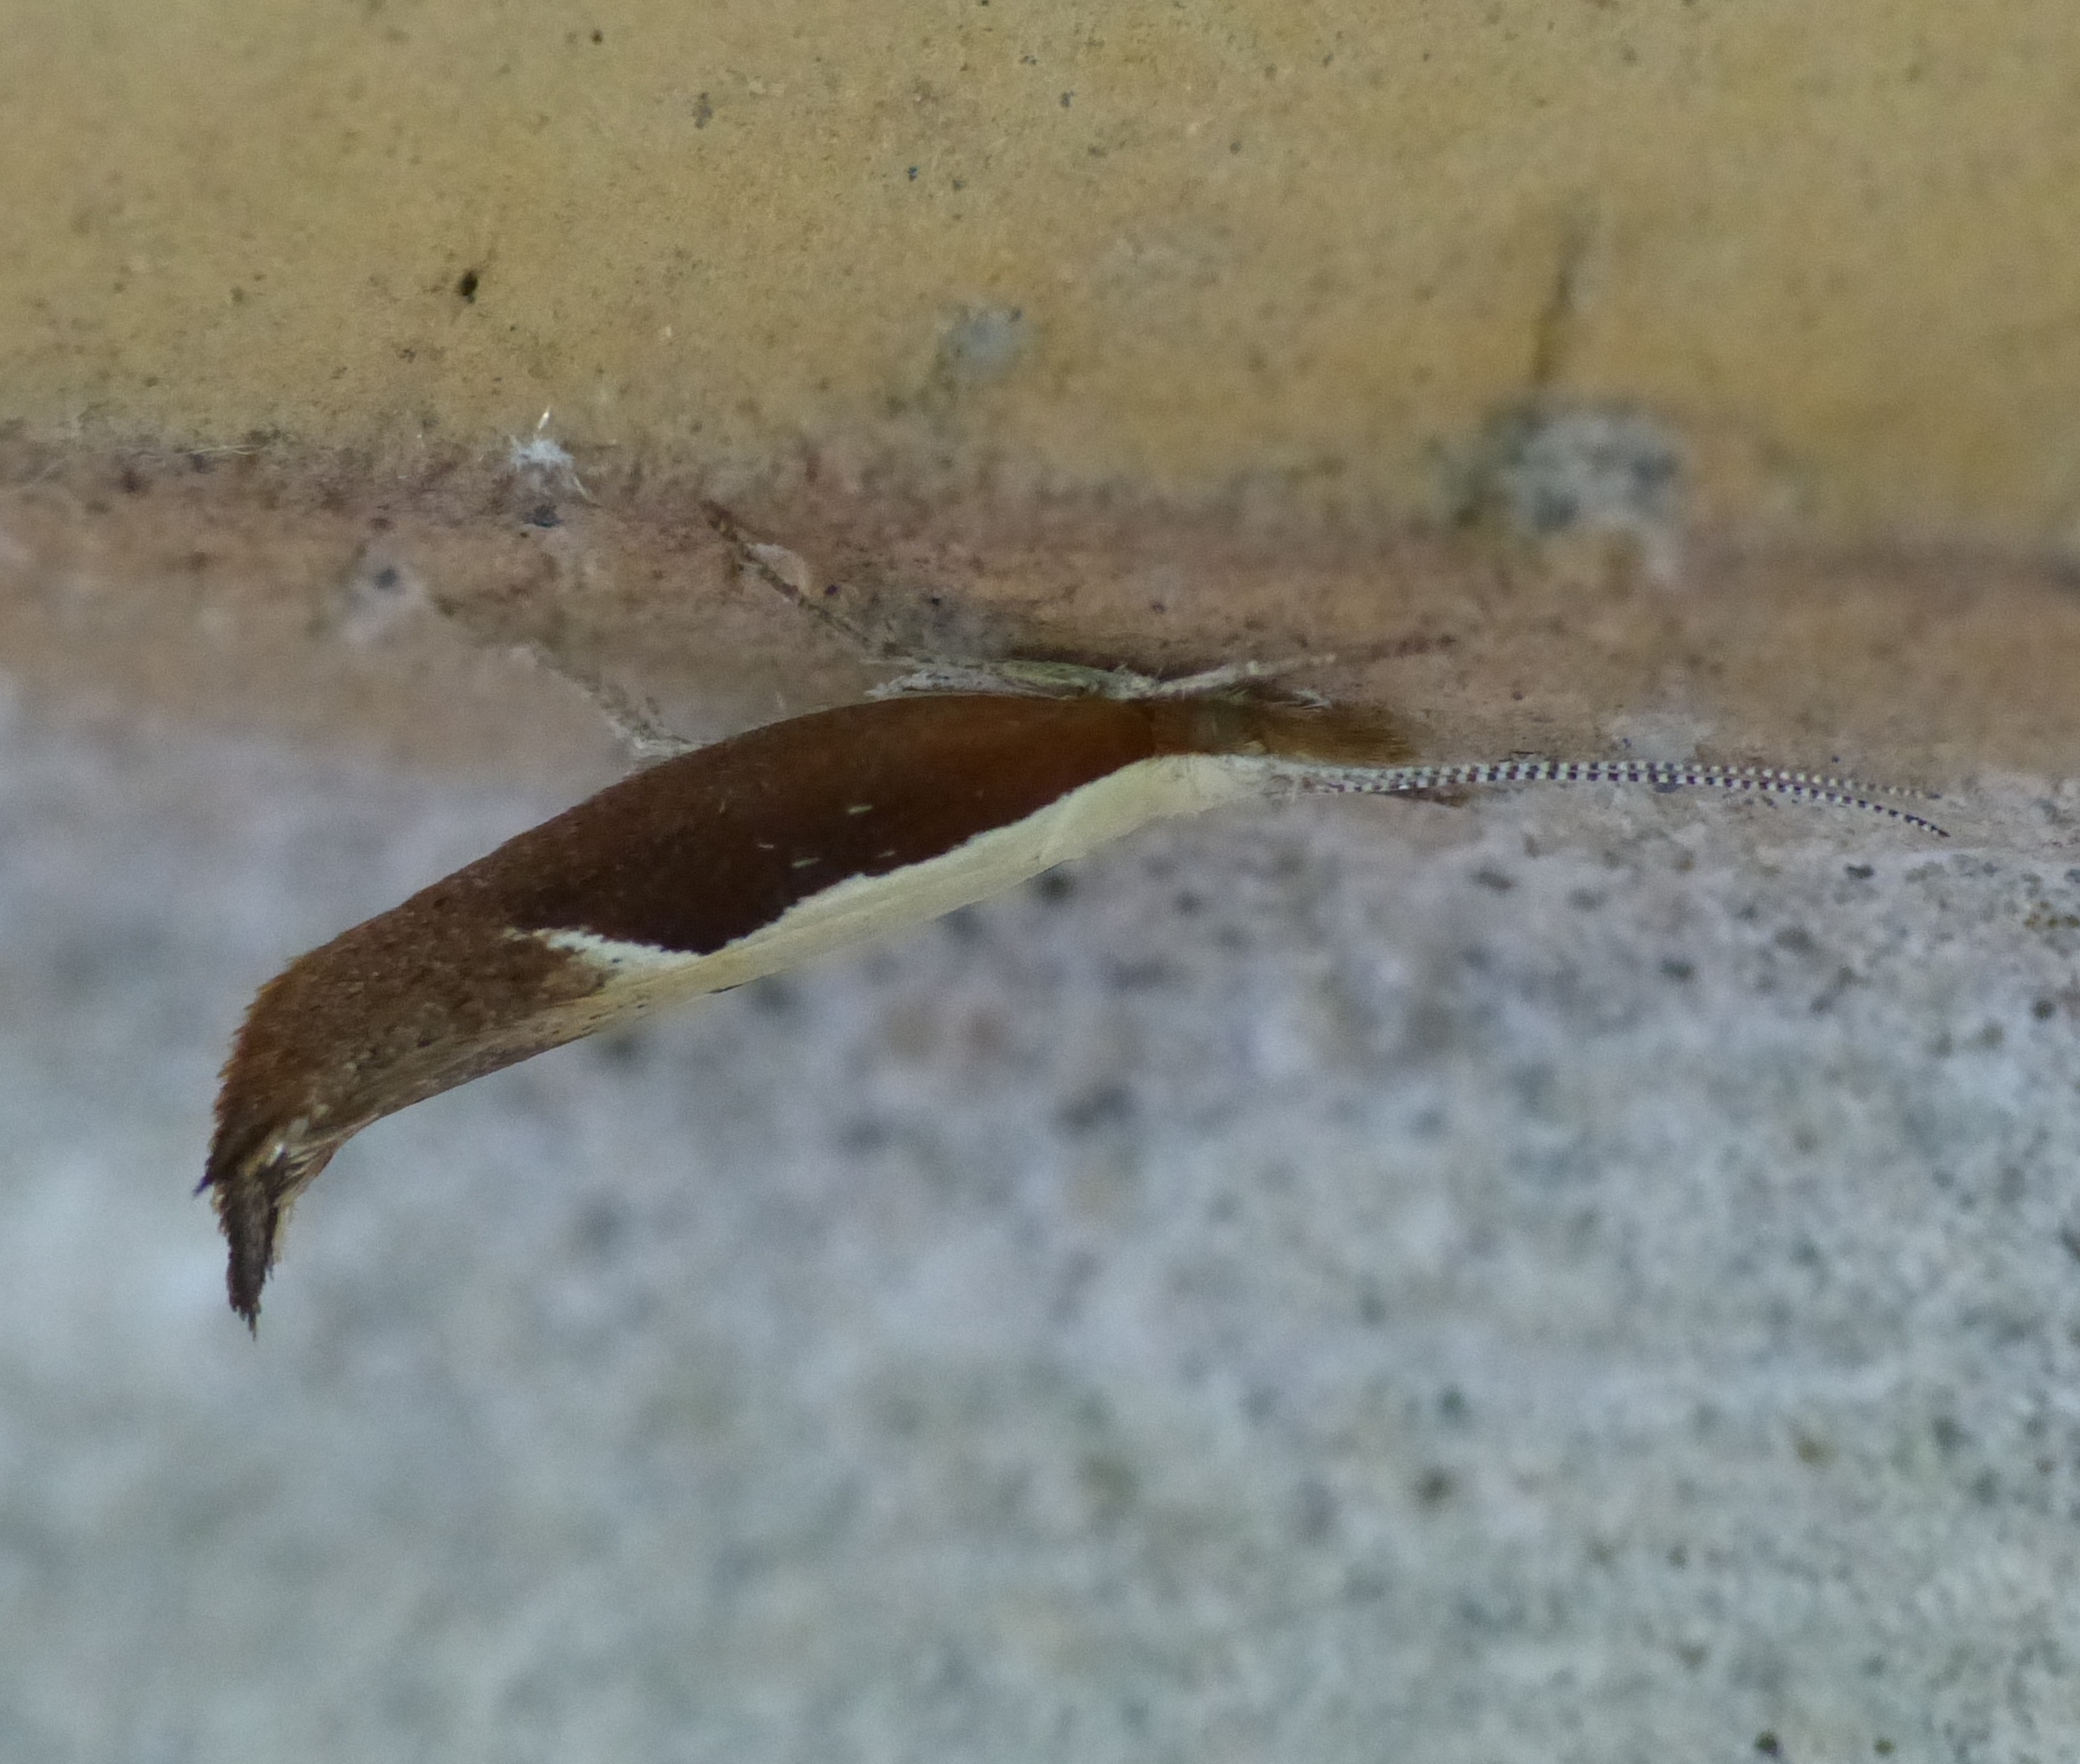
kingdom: Animalia
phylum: Arthropoda
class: Insecta
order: Lepidoptera
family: Ypsolophidae
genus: Ypsolopha
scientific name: Ypsolopha dentella
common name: Snudegedebladmøl
